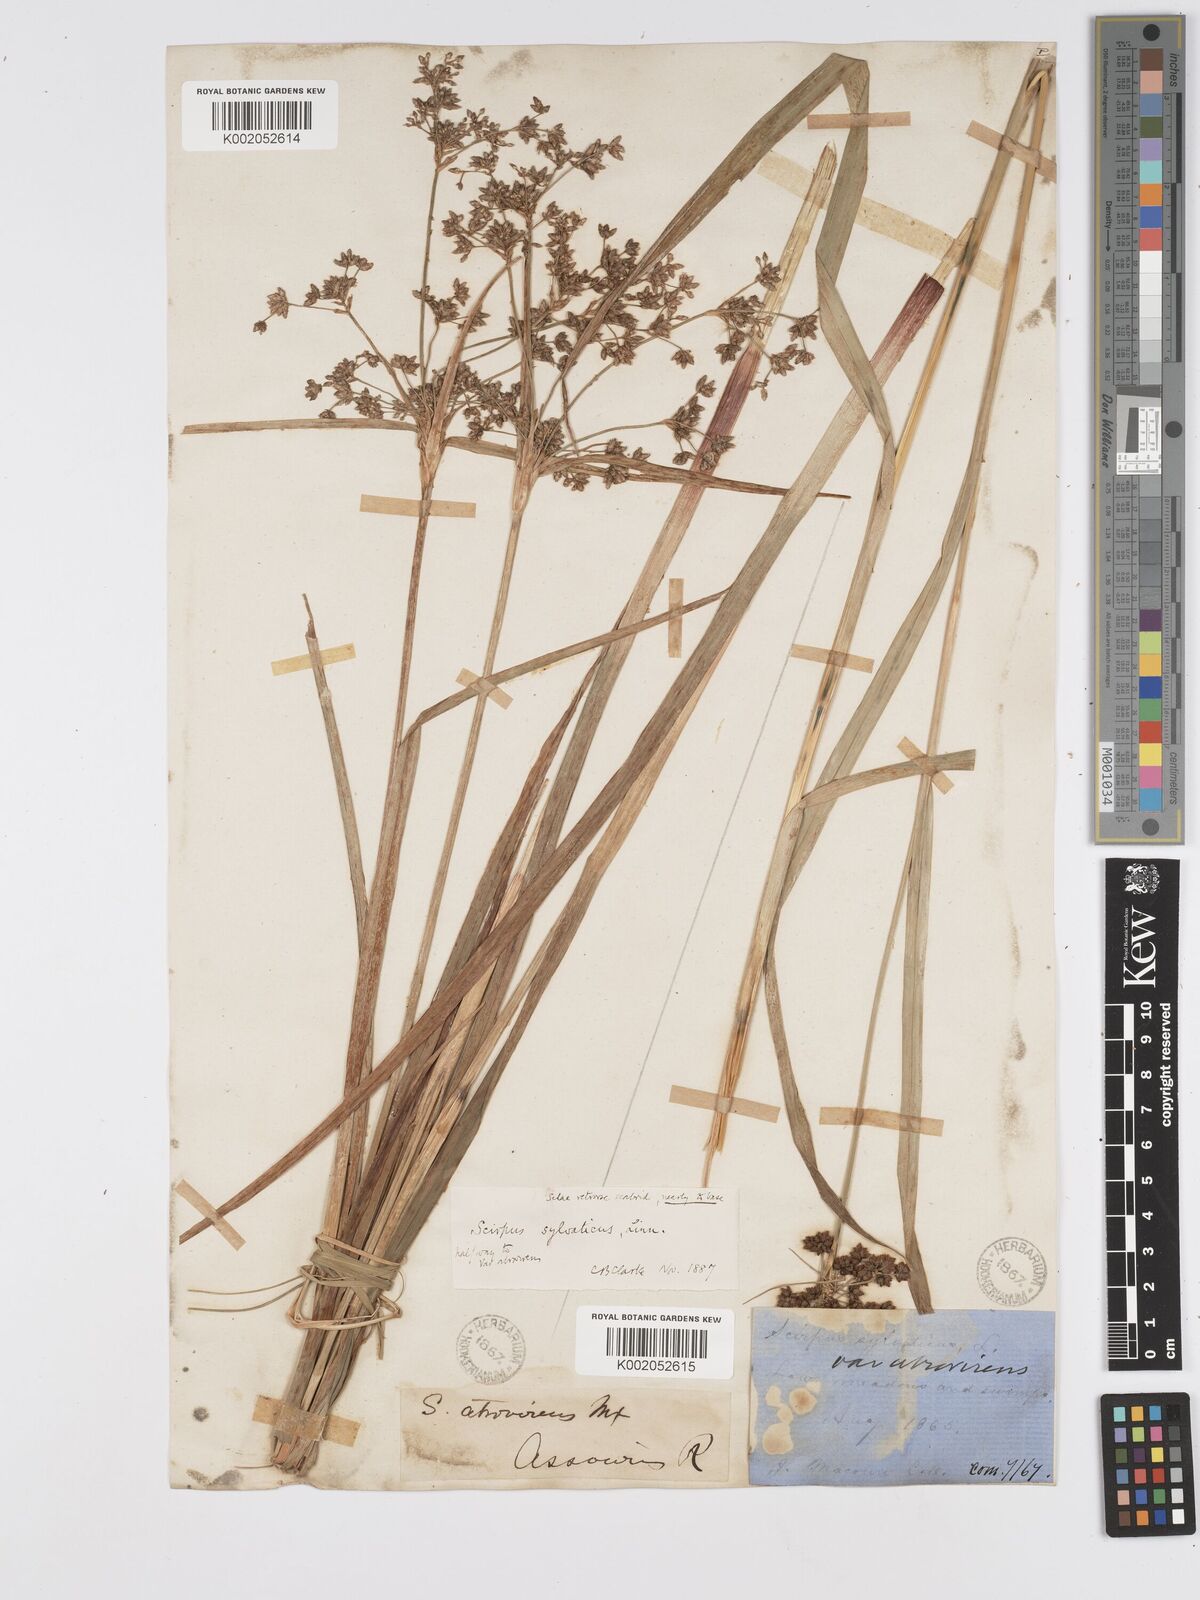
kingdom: Plantae
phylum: Tracheophyta
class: Liliopsida
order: Poales
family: Cyperaceae
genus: Scirpus
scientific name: Scirpus atrovirens
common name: Black bulrush
